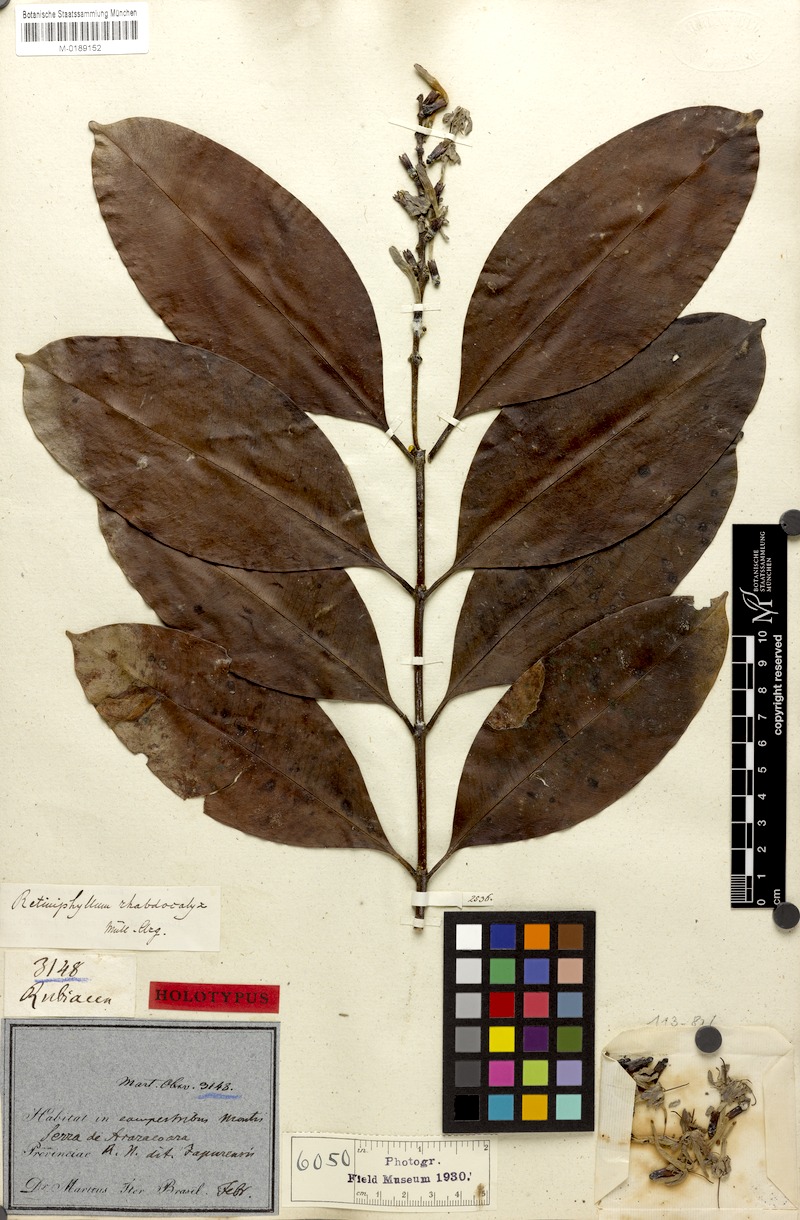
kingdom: Plantae
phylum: Tracheophyta
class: Magnoliopsida
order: Gentianales
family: Rubiaceae
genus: Retiniphyllum
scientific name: Retiniphyllum speciosum
